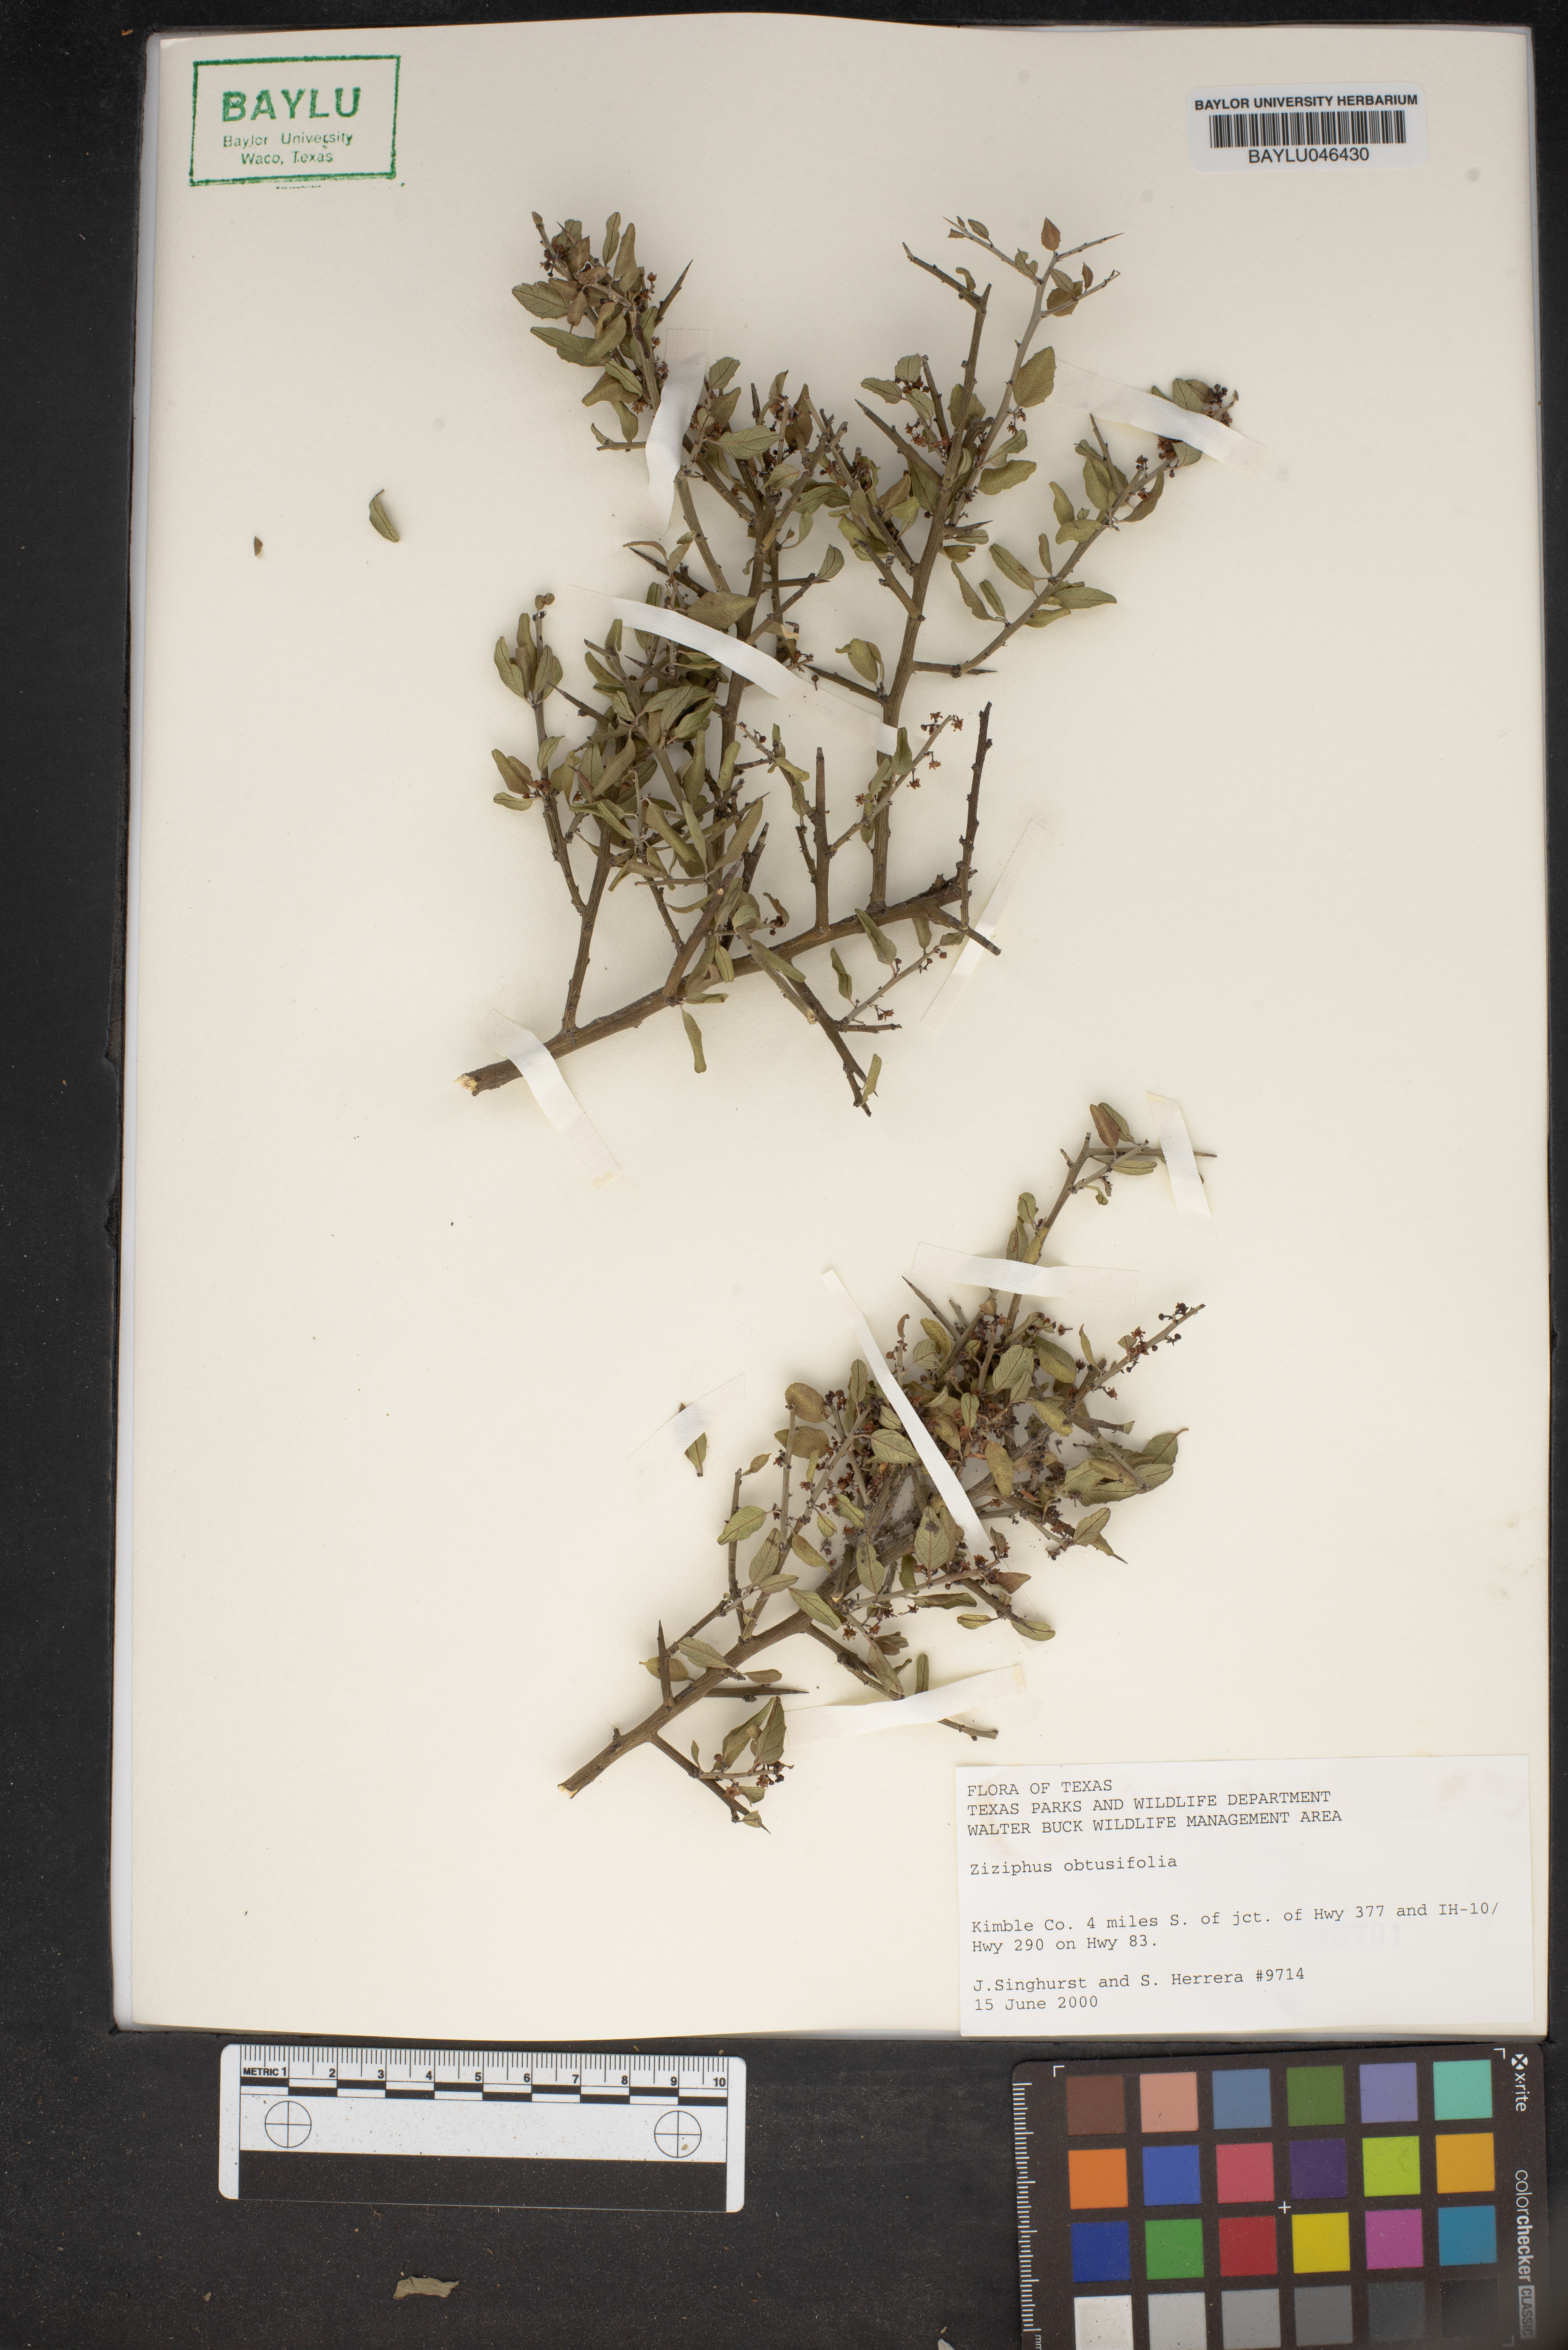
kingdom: Plantae
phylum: Tracheophyta
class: Magnoliopsida
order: Rosales
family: Rhamnaceae
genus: Sarcomphalus
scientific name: Sarcomphalus obtusifolius
